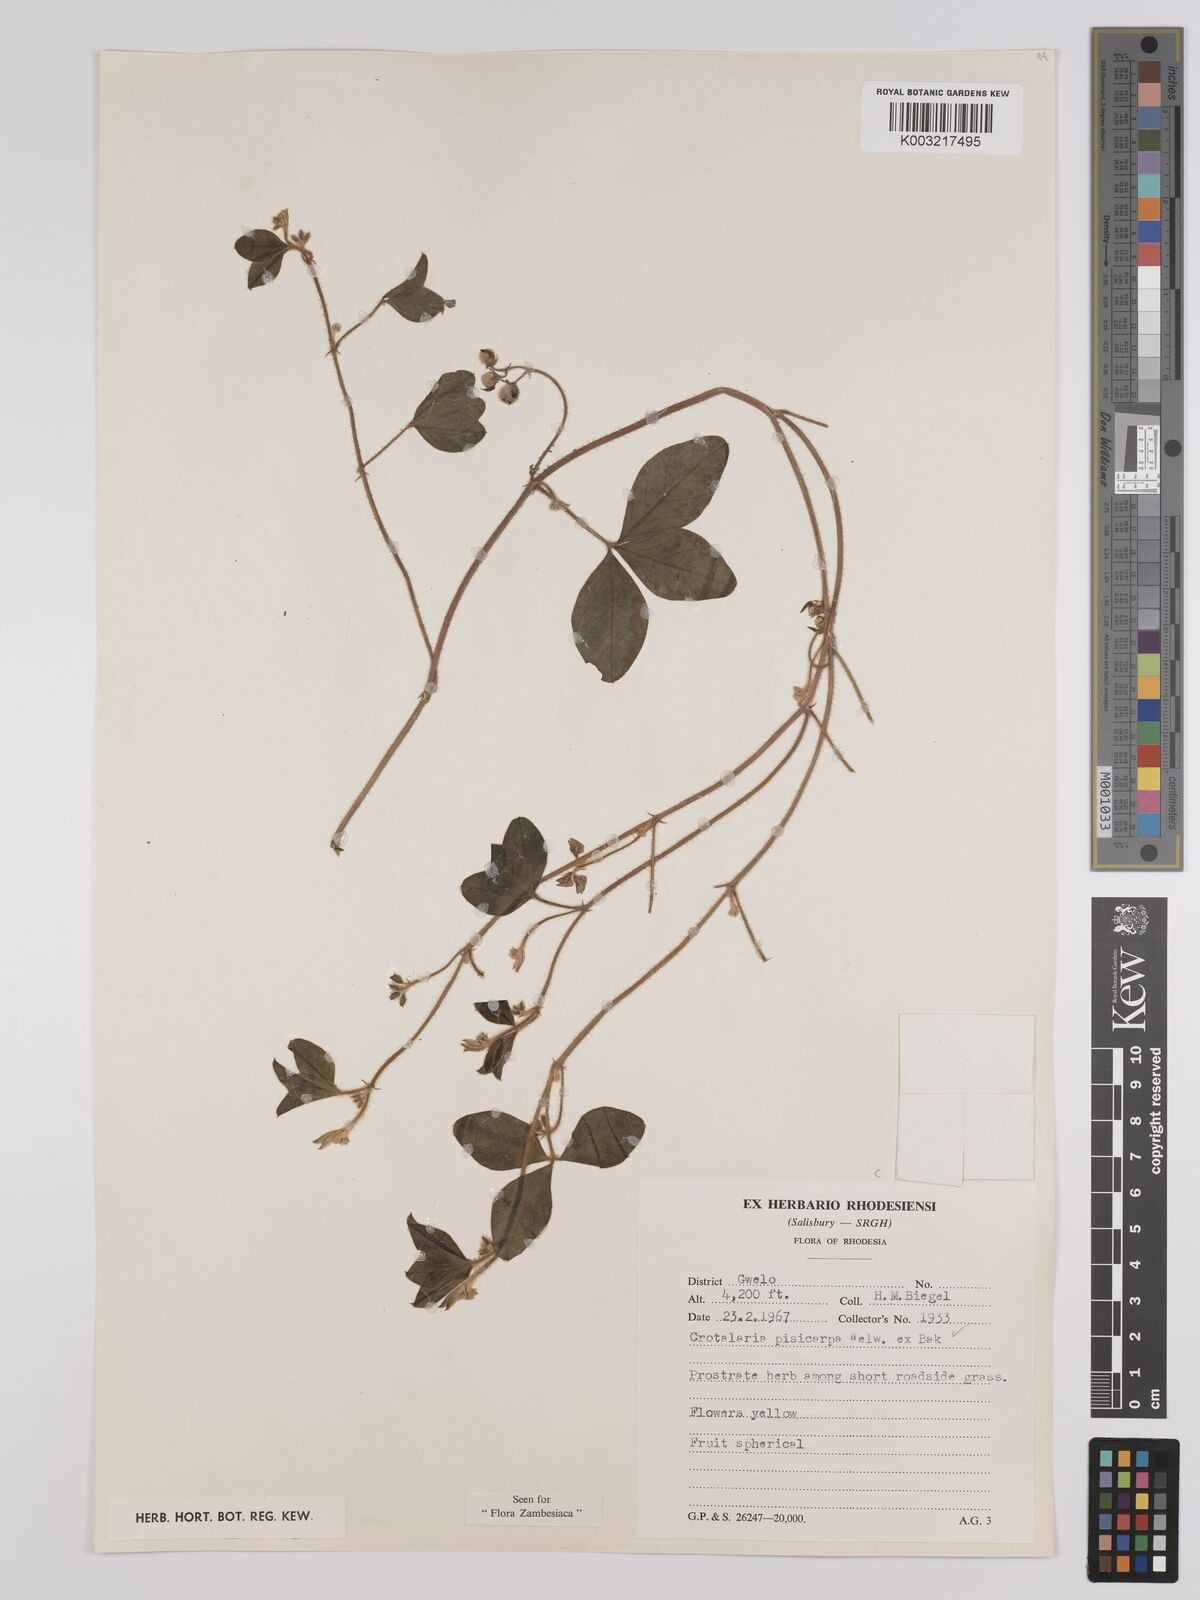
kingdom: Plantae
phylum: Tracheophyta
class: Magnoliopsida
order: Fabales
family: Fabaceae
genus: Crotalaria
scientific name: Crotalaria pisicarpa
